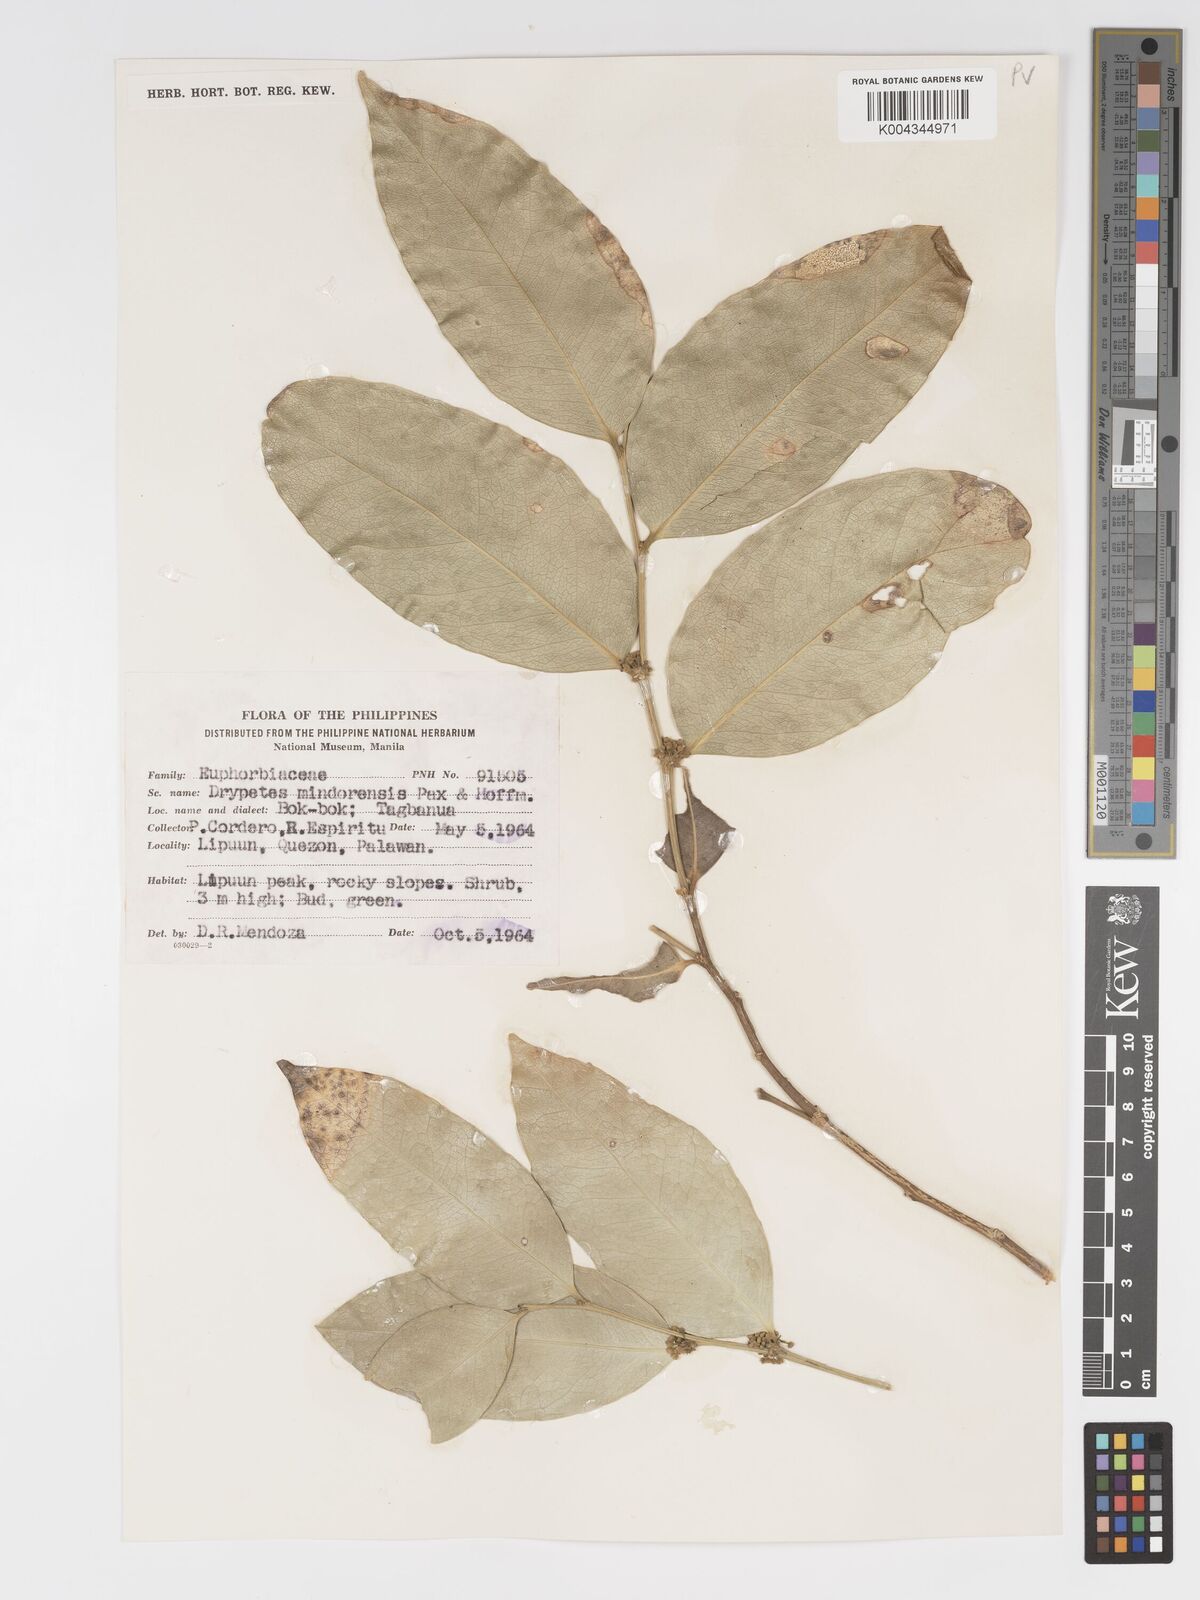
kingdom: Plantae
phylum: Tracheophyta
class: Magnoliopsida
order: Malpighiales
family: Putranjivaceae
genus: Drypetes
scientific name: Drypetes littoralis
